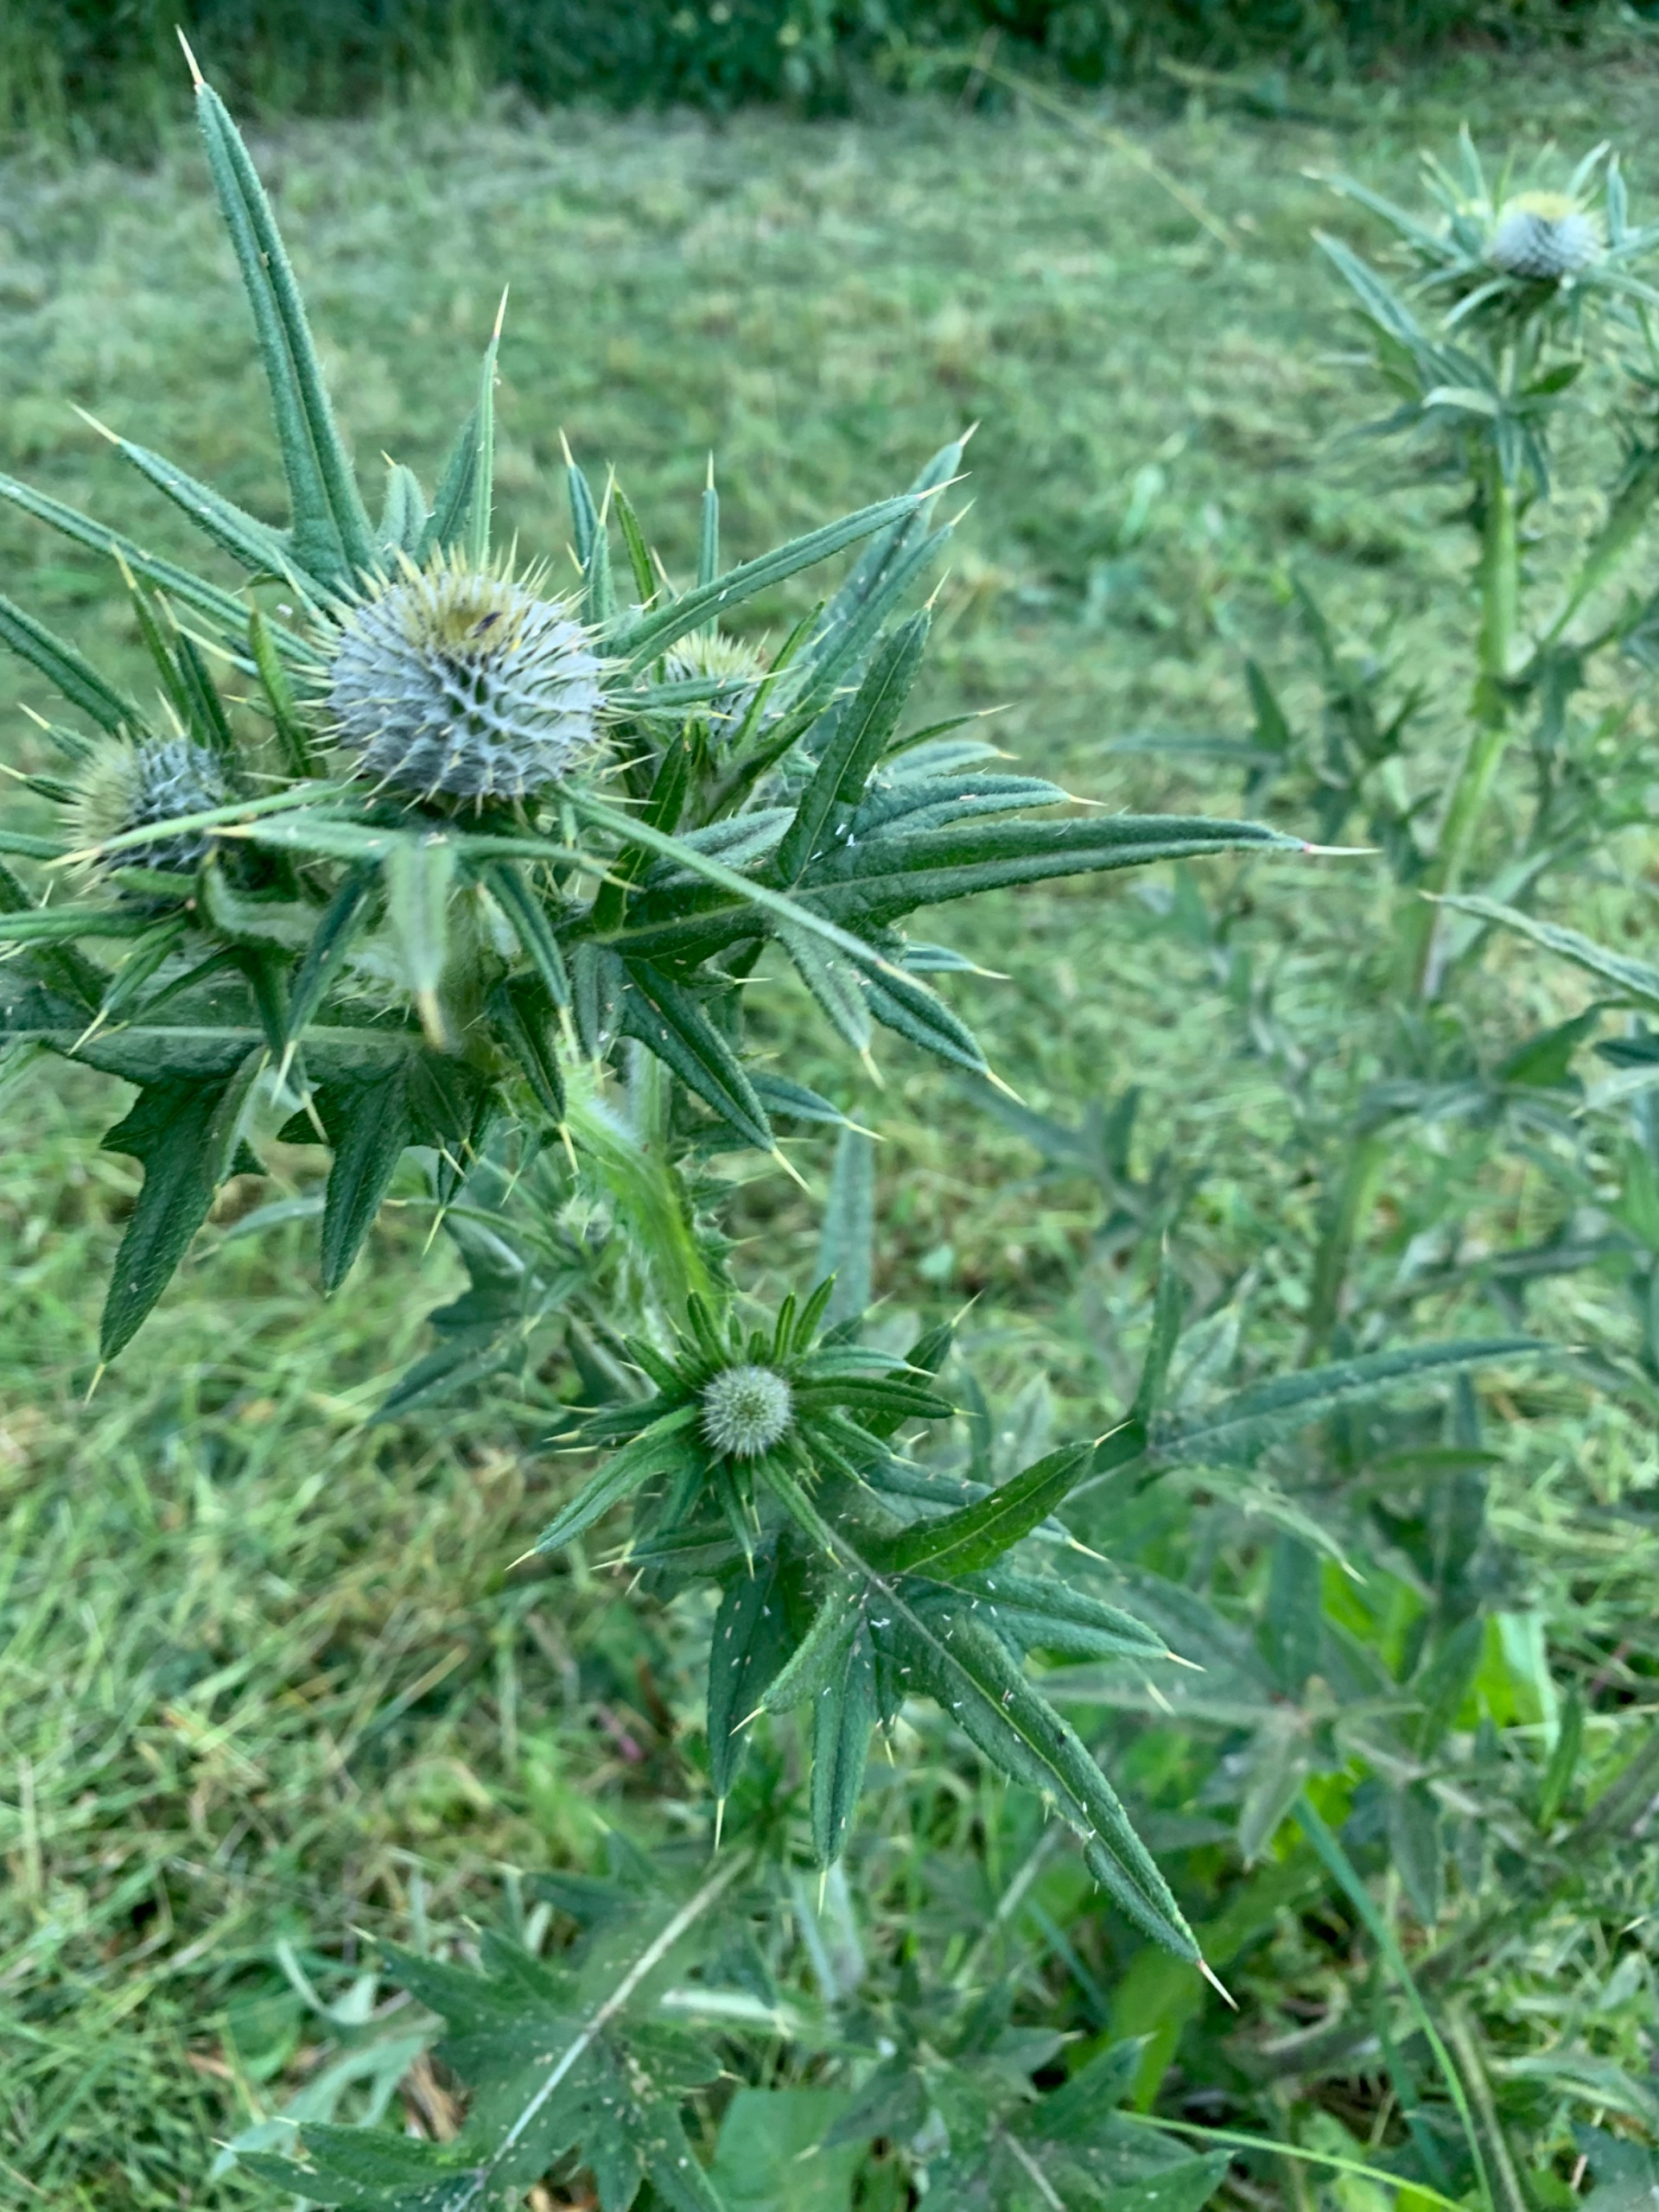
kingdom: Plantae
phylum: Tracheophyta
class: Magnoliopsida
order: Asterales
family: Asteraceae
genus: Cirsium
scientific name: Cirsium vulgare
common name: Horse-tidsel
